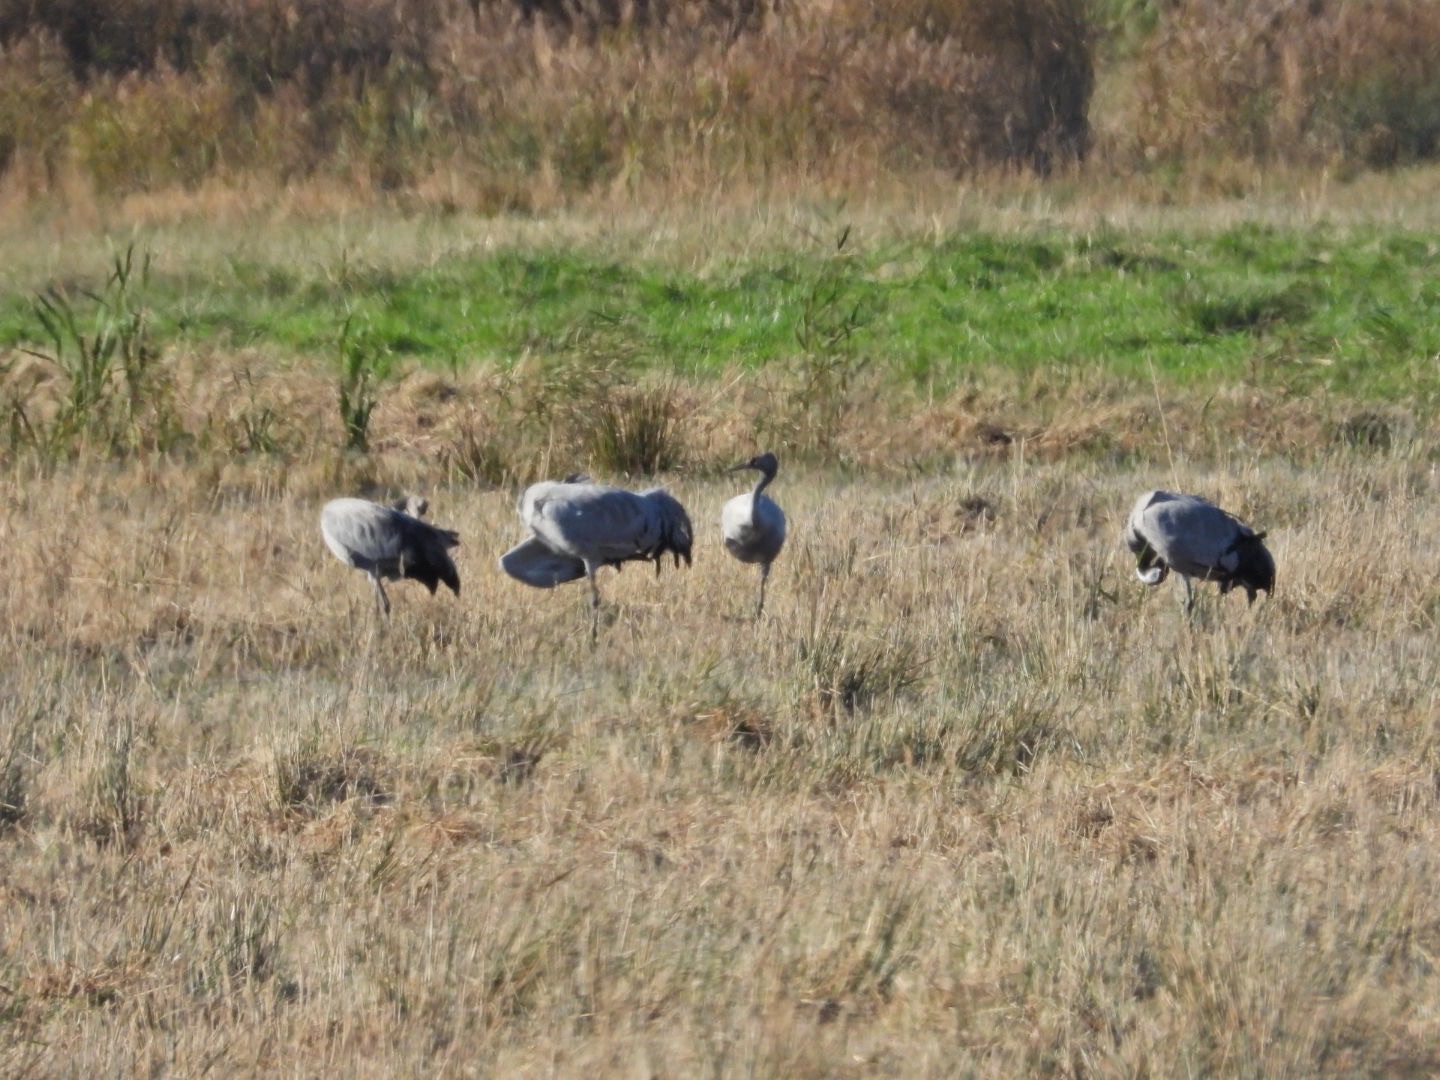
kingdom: Animalia
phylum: Chordata
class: Aves
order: Gruiformes
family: Gruidae
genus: Grus
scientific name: Grus grus
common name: Trane
